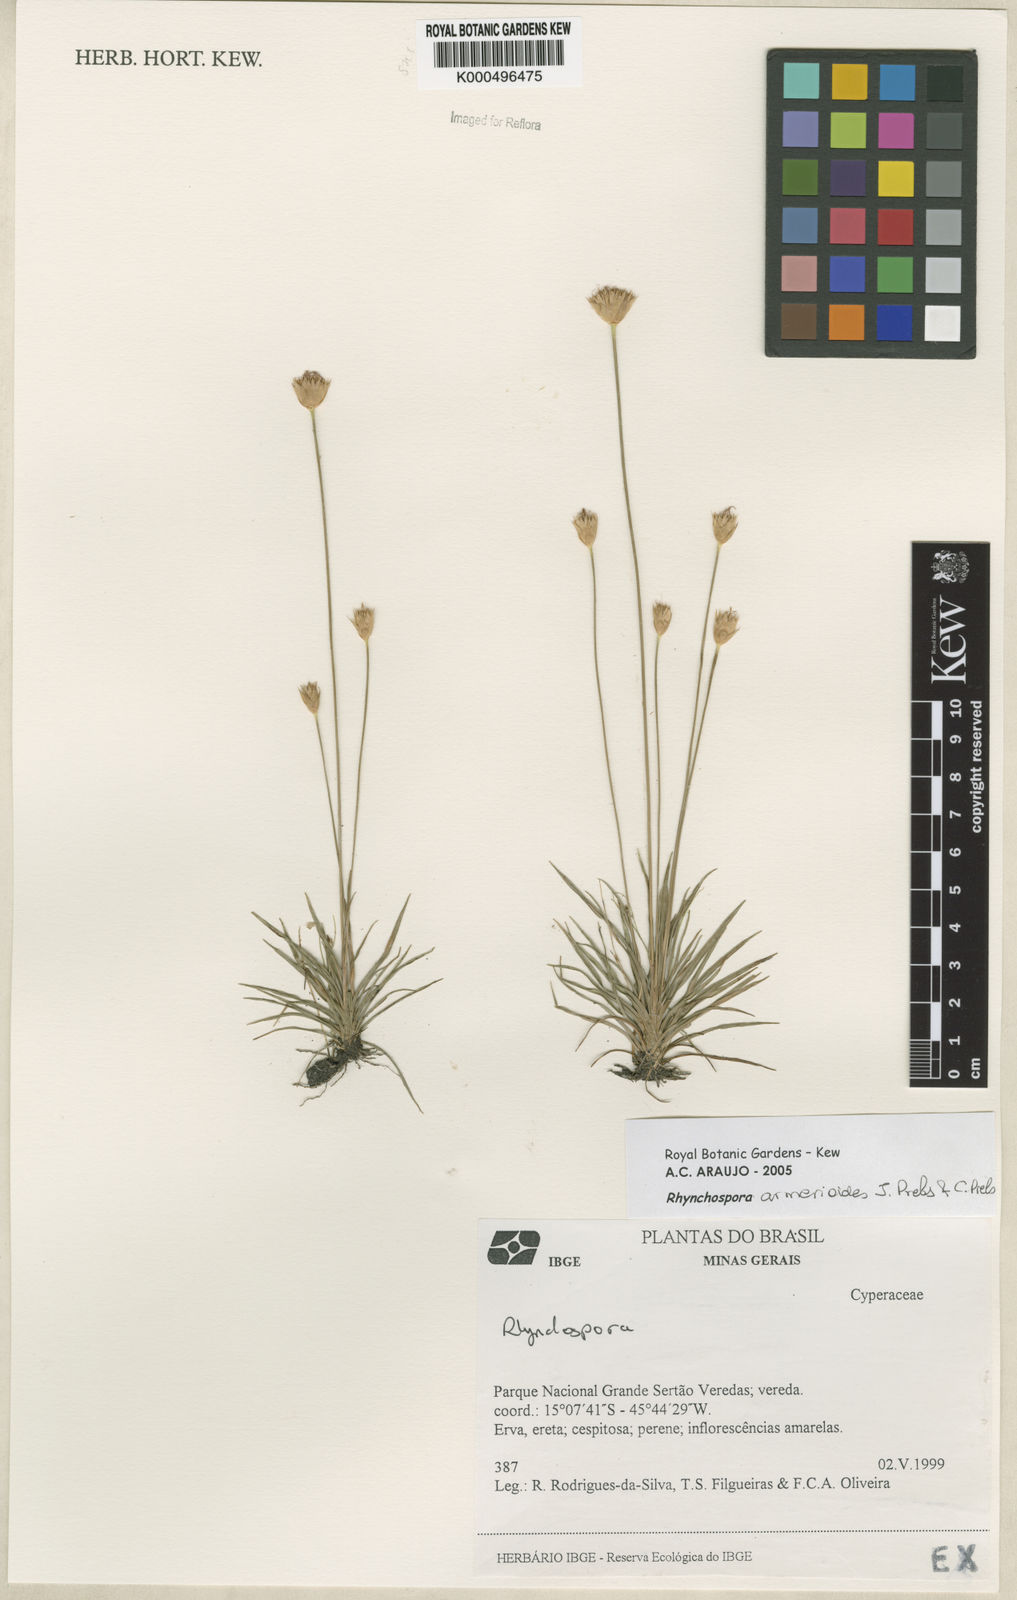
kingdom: Plantae
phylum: Tracheophyta
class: Liliopsida
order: Poales
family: Cyperaceae
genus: Rhynchospora
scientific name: Rhynchospora armerioides
